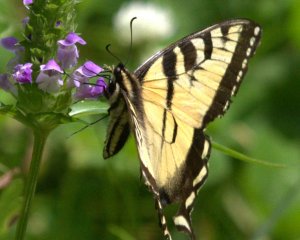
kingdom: Animalia
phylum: Arthropoda
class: Insecta
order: Lepidoptera
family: Papilionidae
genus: Pterourus
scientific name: Pterourus
